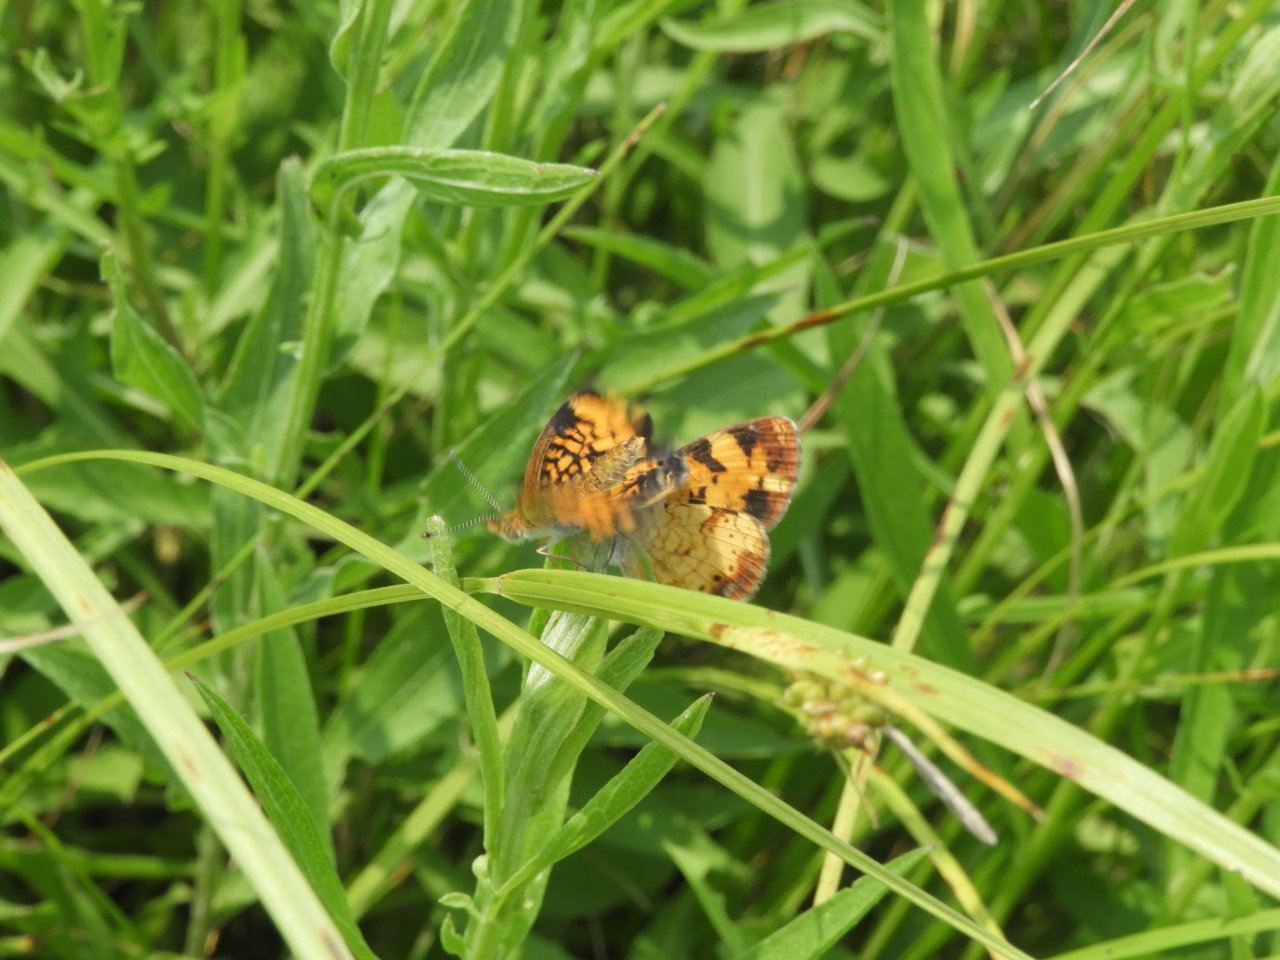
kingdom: Animalia
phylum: Arthropoda
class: Insecta
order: Lepidoptera
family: Nymphalidae
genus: Phyciodes
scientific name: Phyciodes tharos
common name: Pearl Crescent
